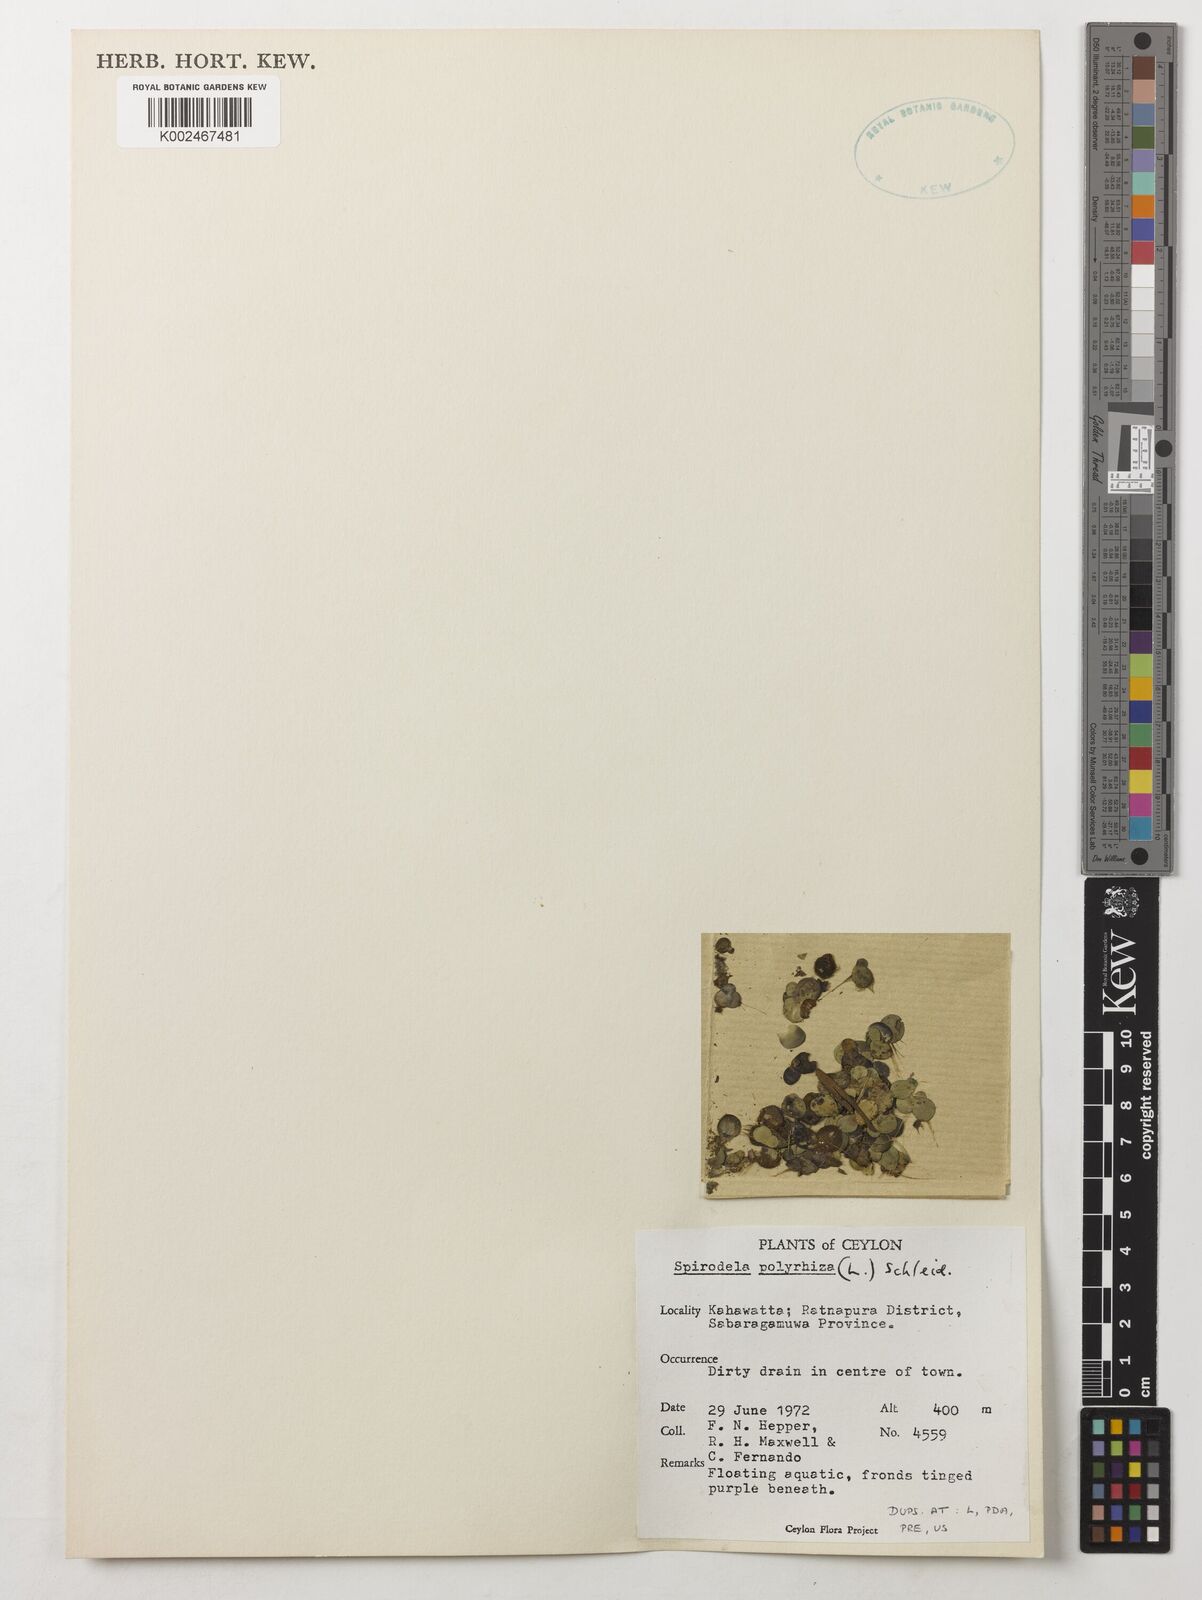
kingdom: Plantae
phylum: Tracheophyta
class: Liliopsida
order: Alismatales
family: Araceae
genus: Spirodela
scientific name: Spirodela polyrhiza
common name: Great duckweed
